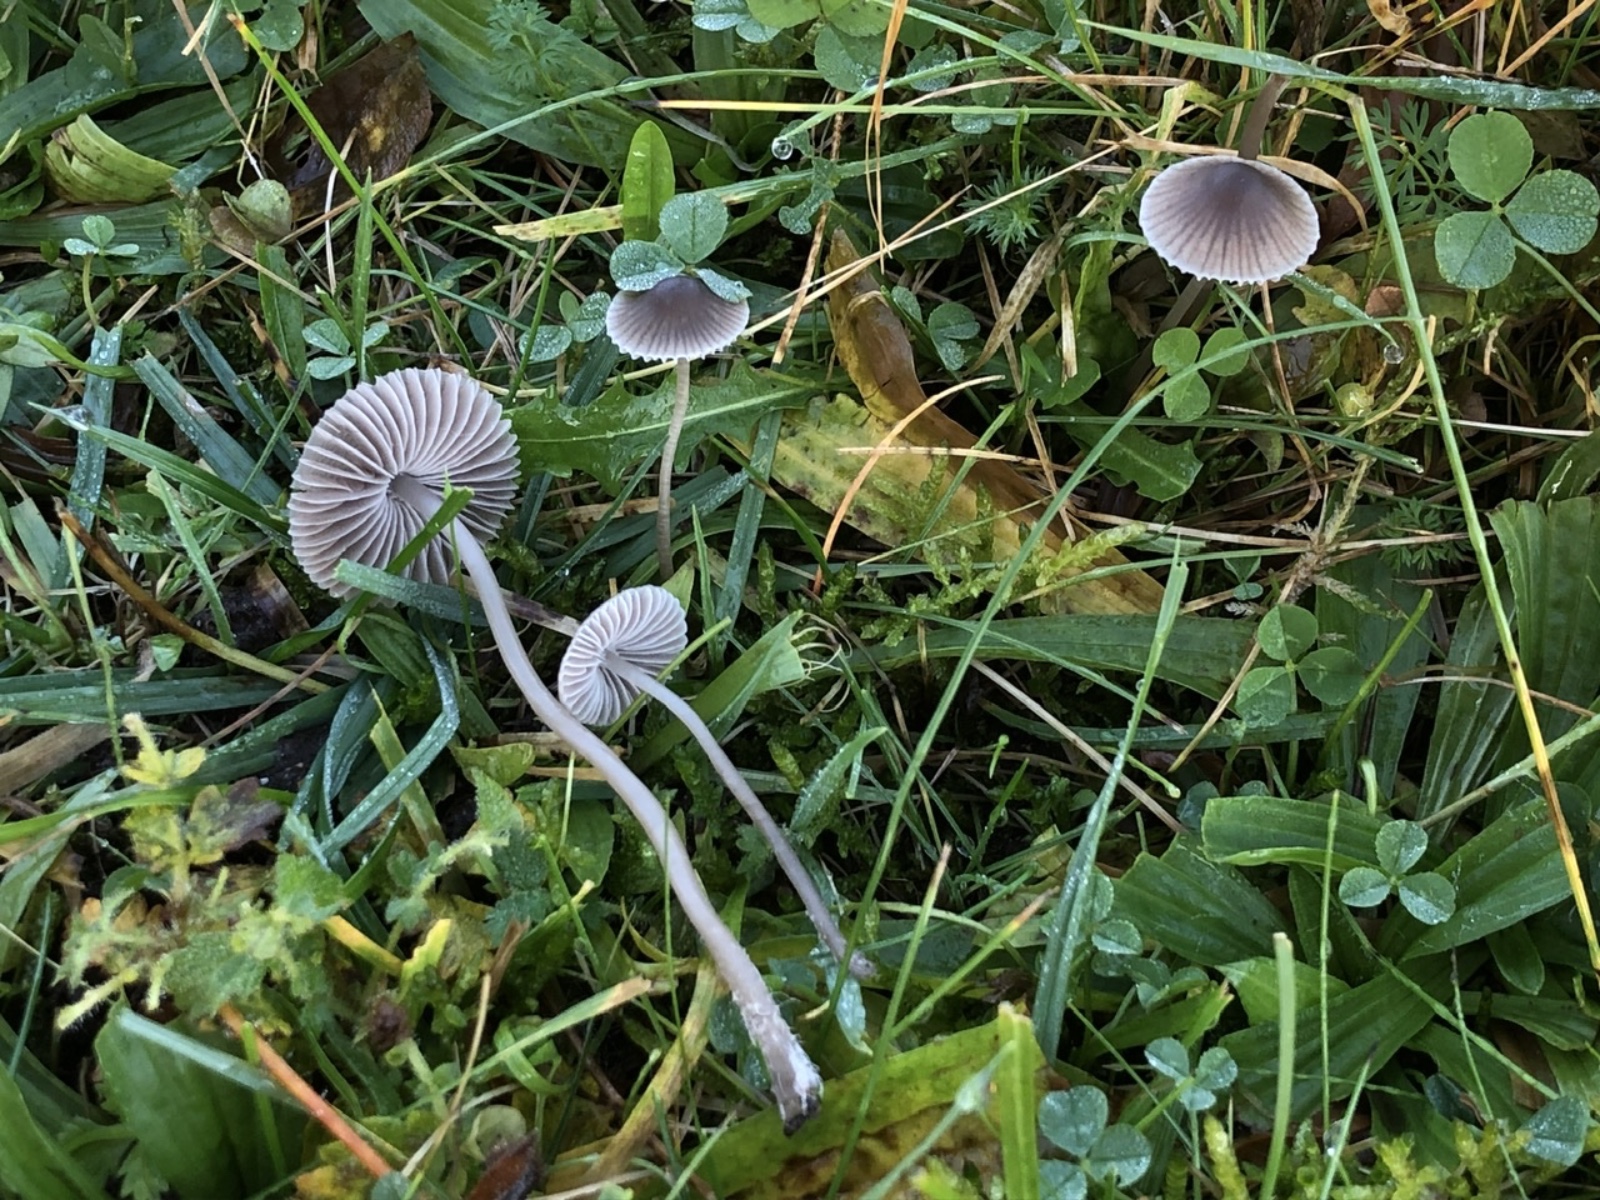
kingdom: Fungi
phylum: Basidiomycota
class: Agaricomycetes
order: Agaricales
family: Mycenaceae
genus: Mycena
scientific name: Mycena aetites
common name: plæne-huesvamp
